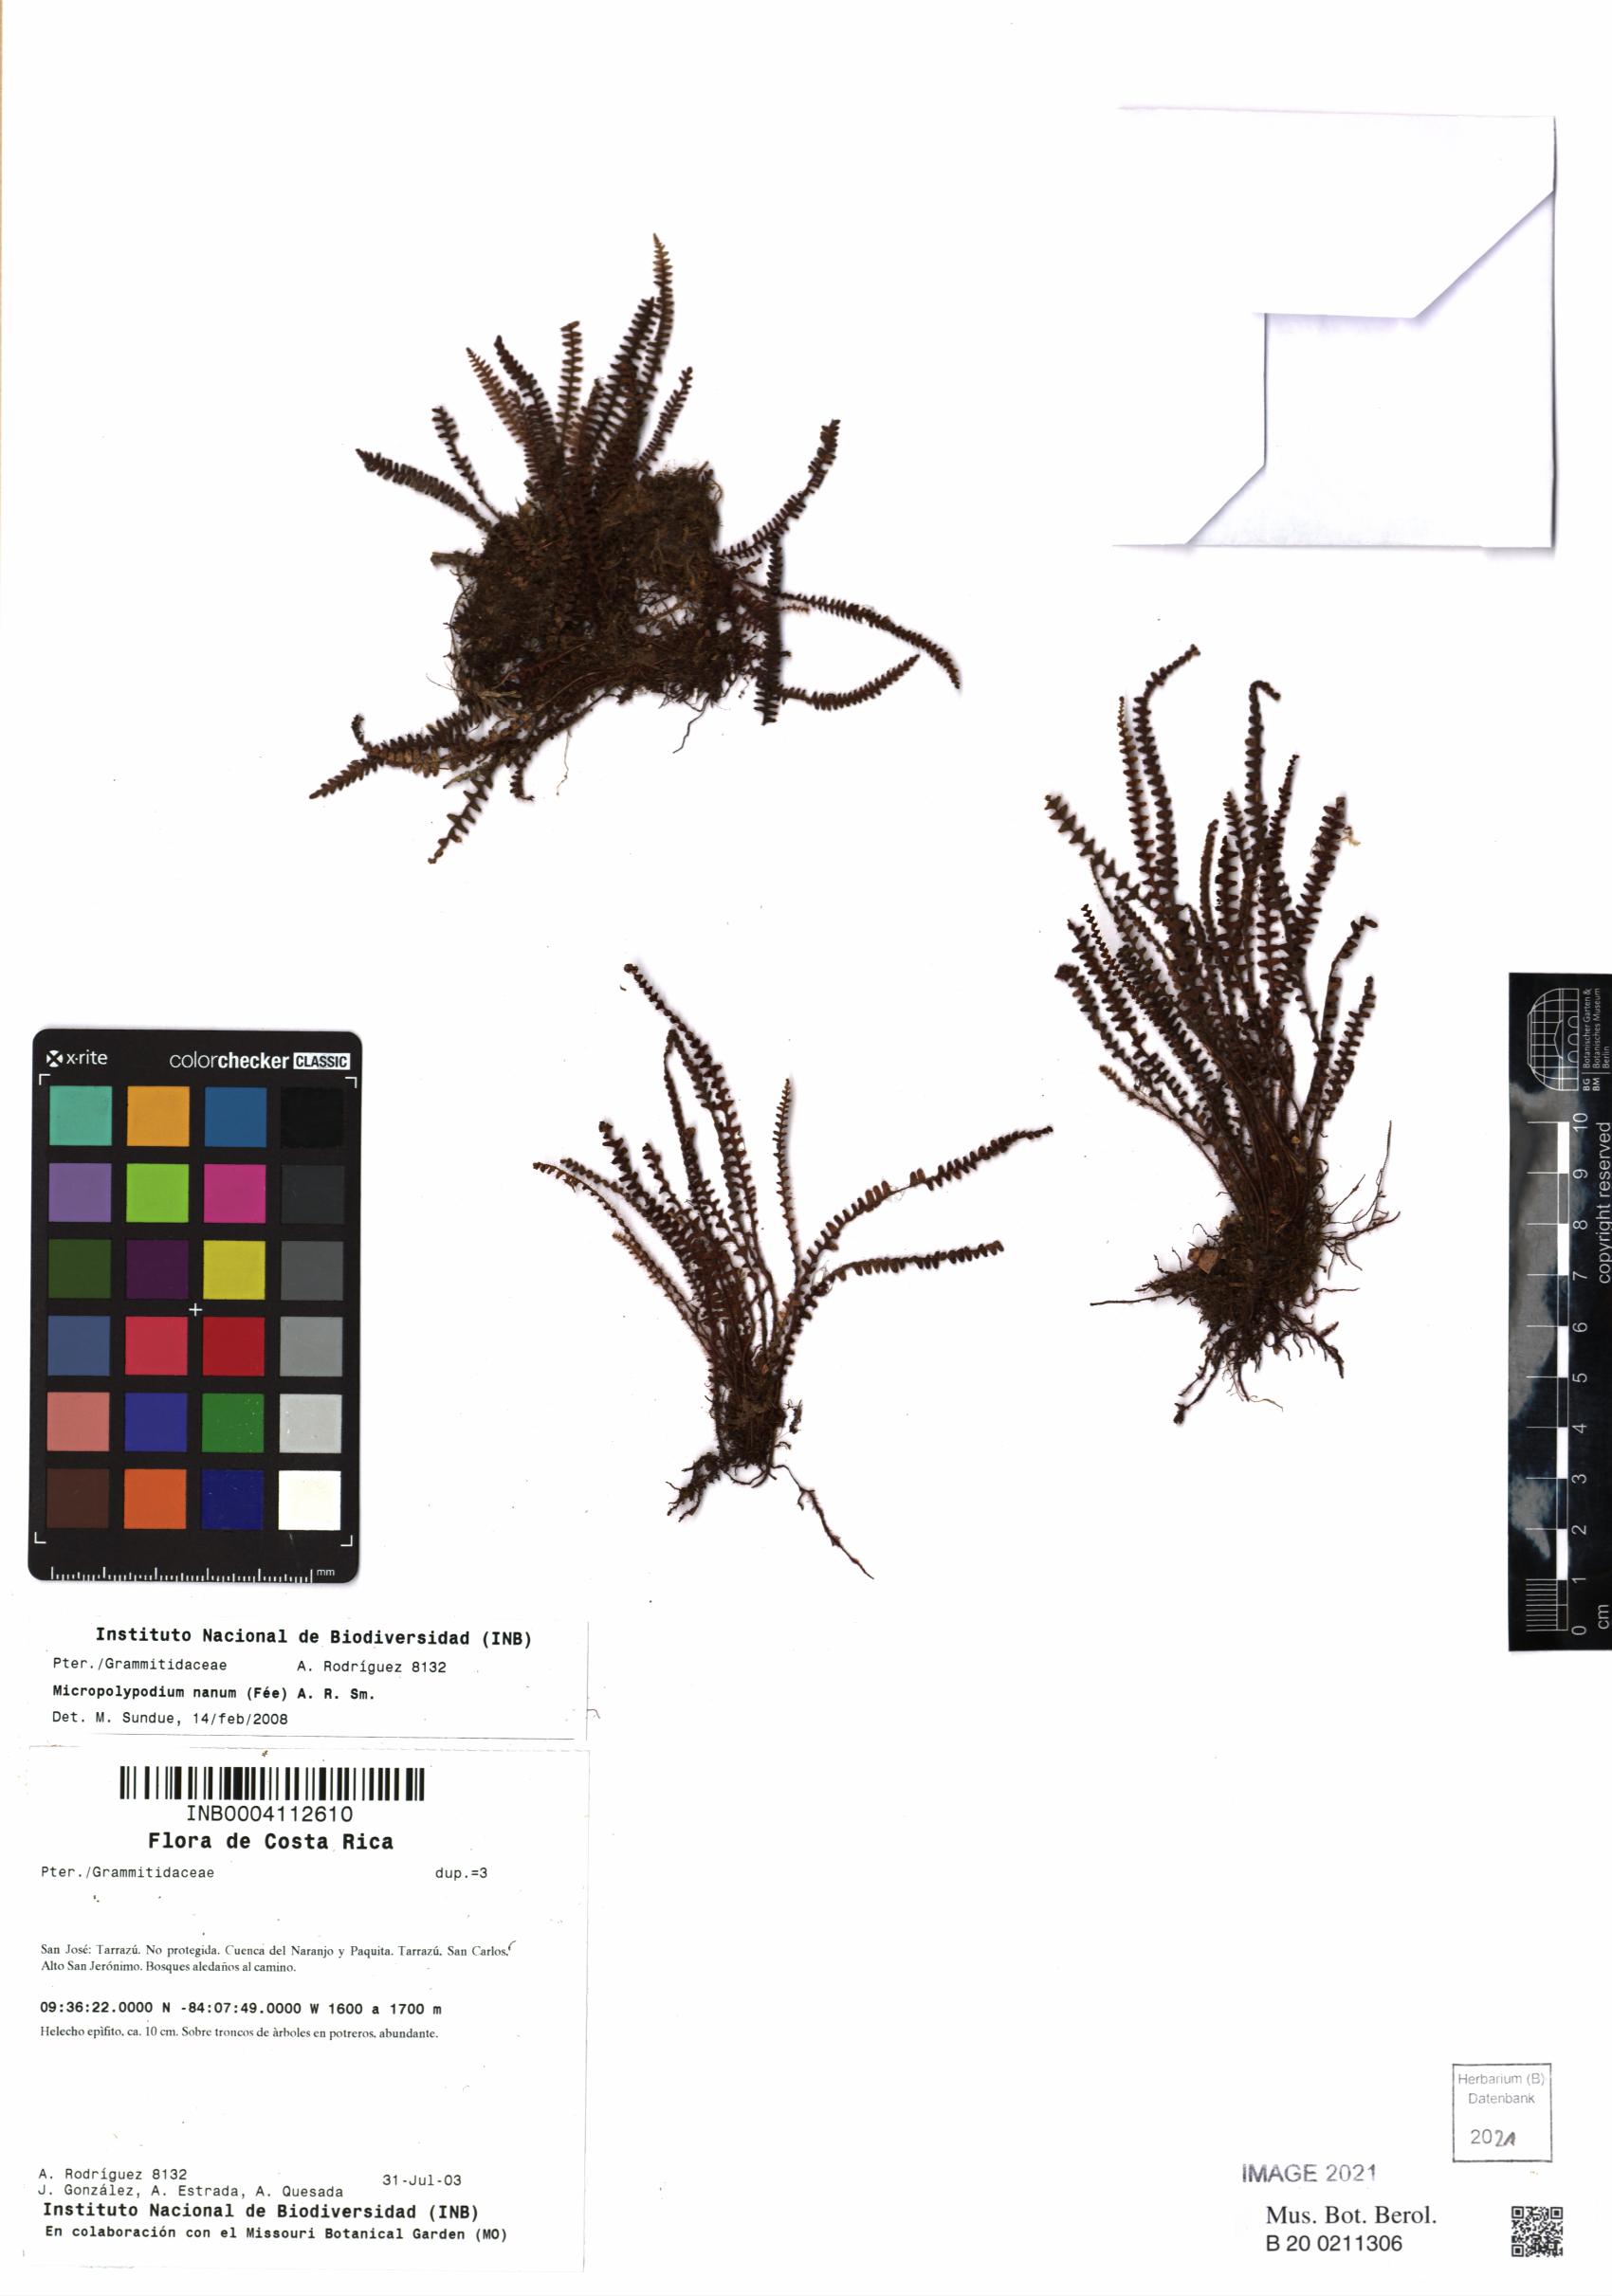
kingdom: Plantae
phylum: Tracheophyta
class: Polypodiopsida
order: Polypodiales
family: Polypodiaceae
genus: Moranopteris
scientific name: Moranopteris nana
